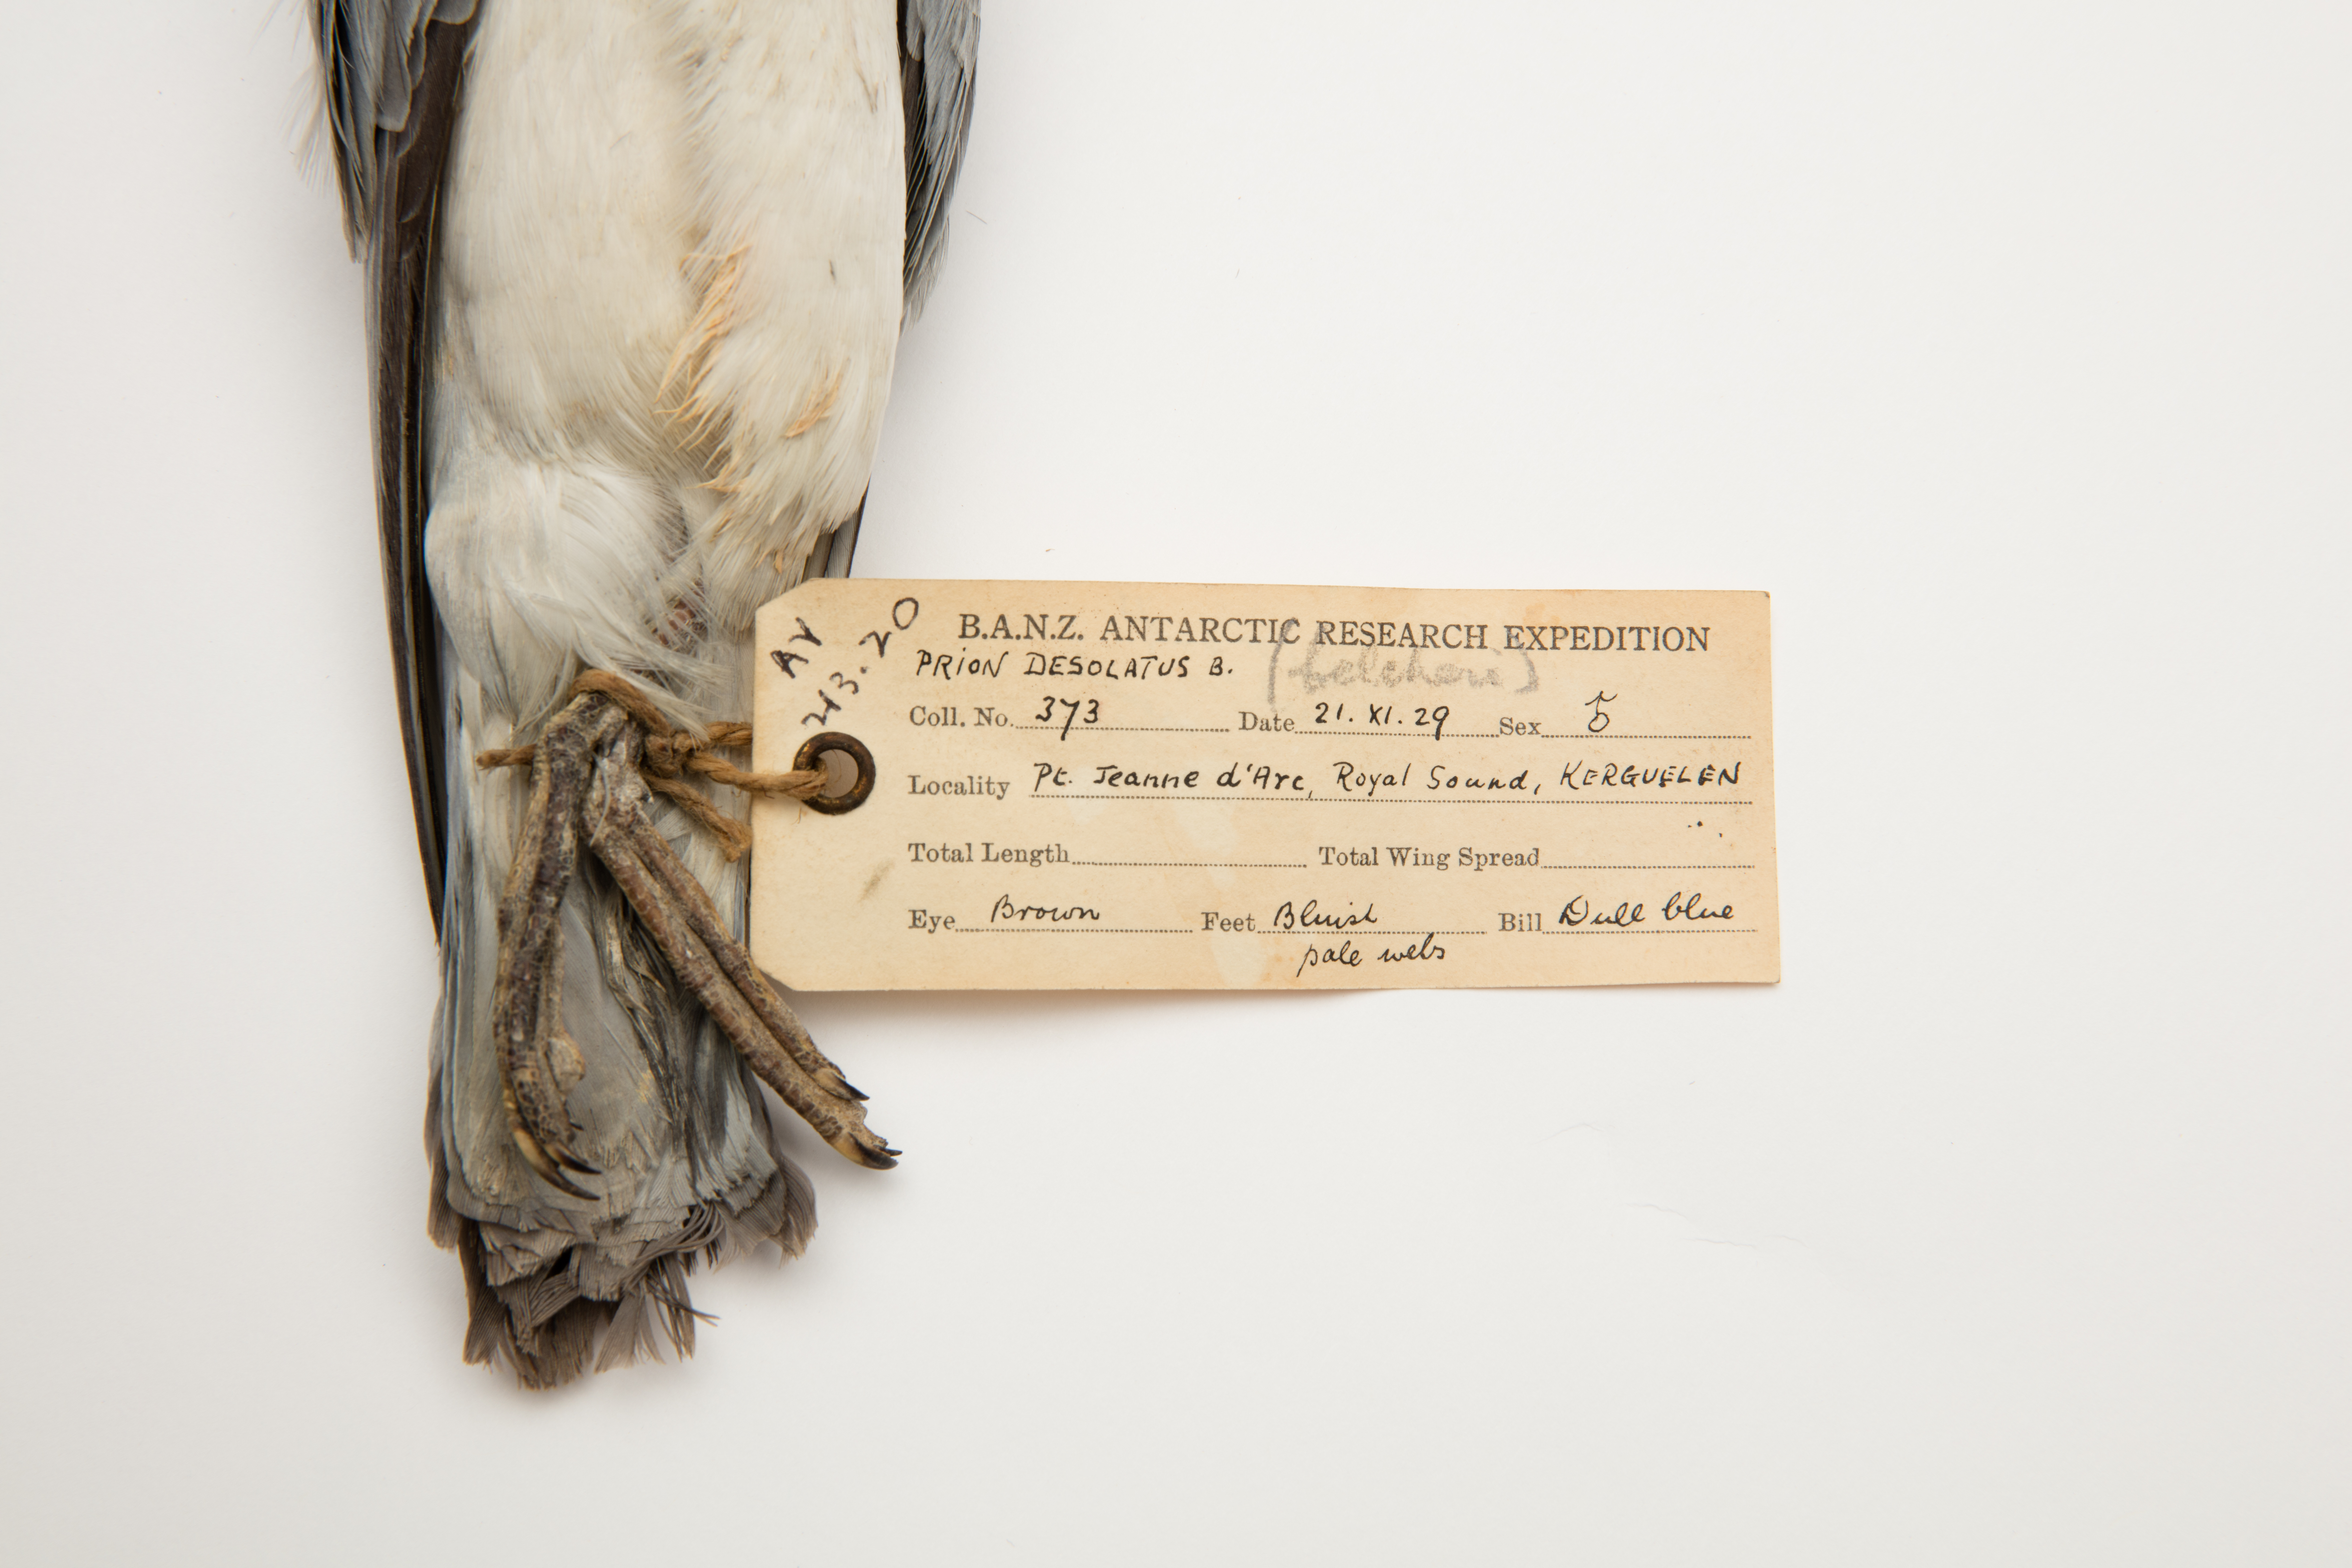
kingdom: Animalia
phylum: Chordata
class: Aves
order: Procellariiformes
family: Procellariidae
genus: Pachyptila
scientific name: Pachyptila belcheri
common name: Slender-billed prion
